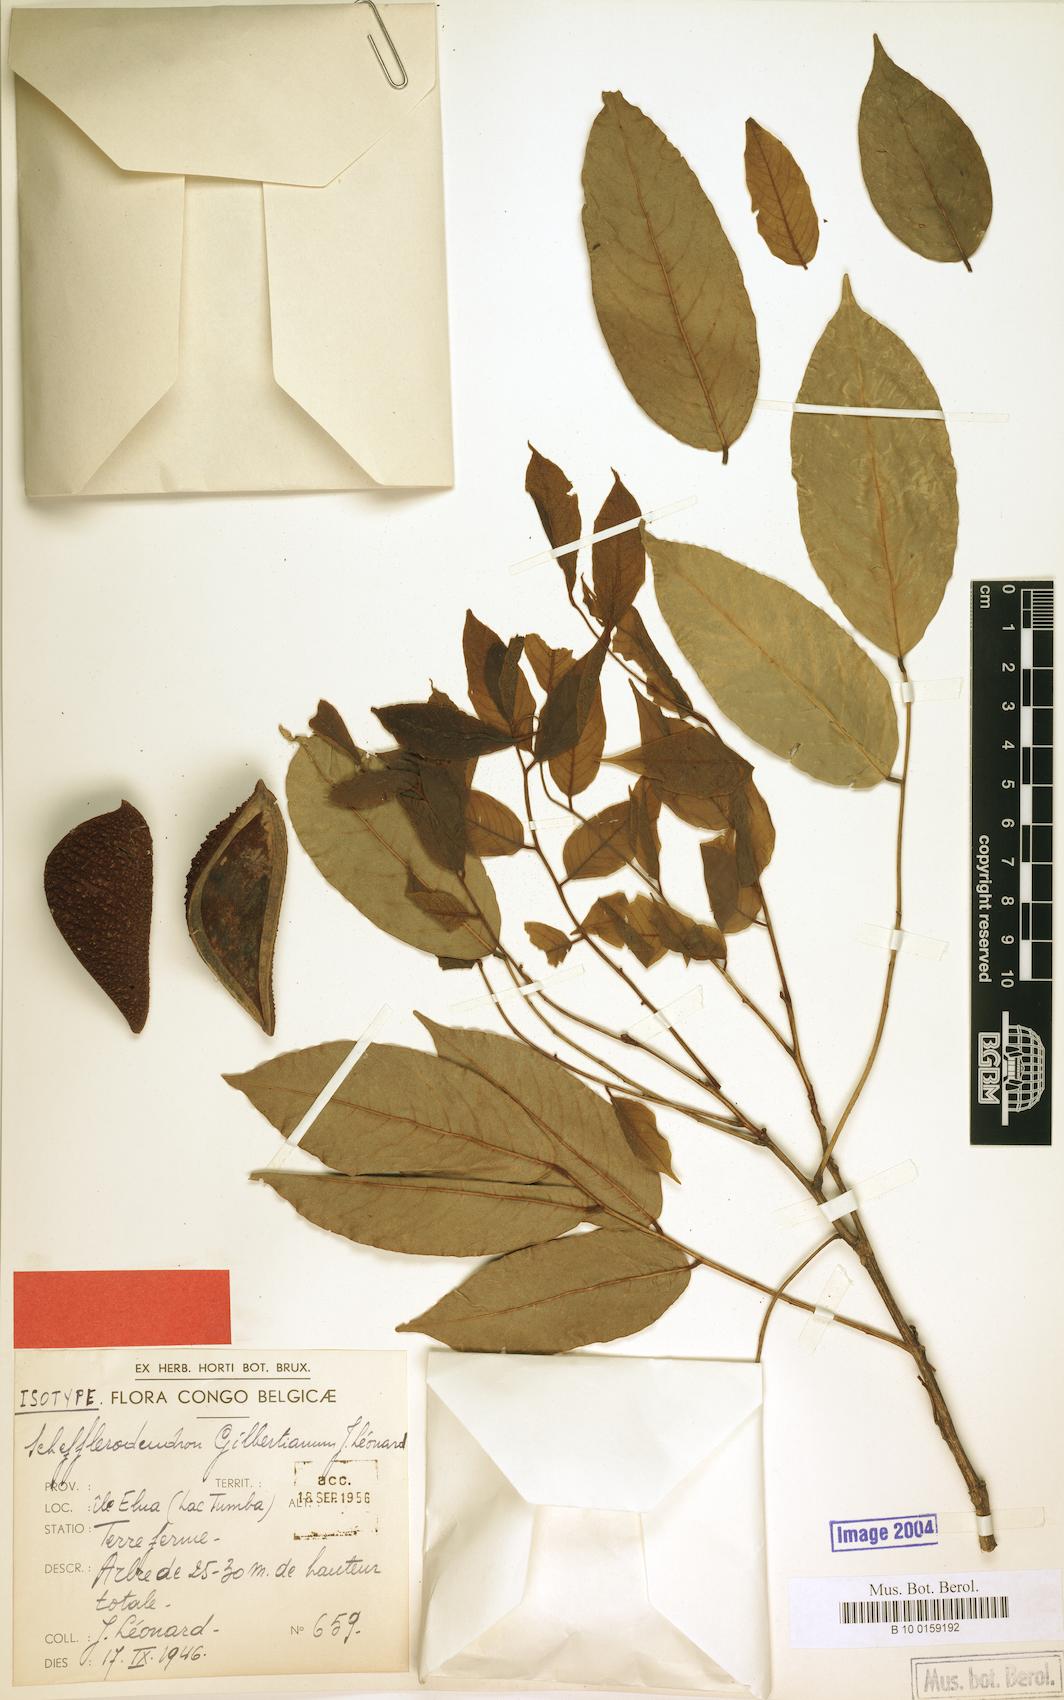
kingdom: Plantae
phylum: Tracheophyta
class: Magnoliopsida
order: Fabales
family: Fabaceae
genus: Schefflerodendron
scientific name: Schefflerodendron gilbertianum
